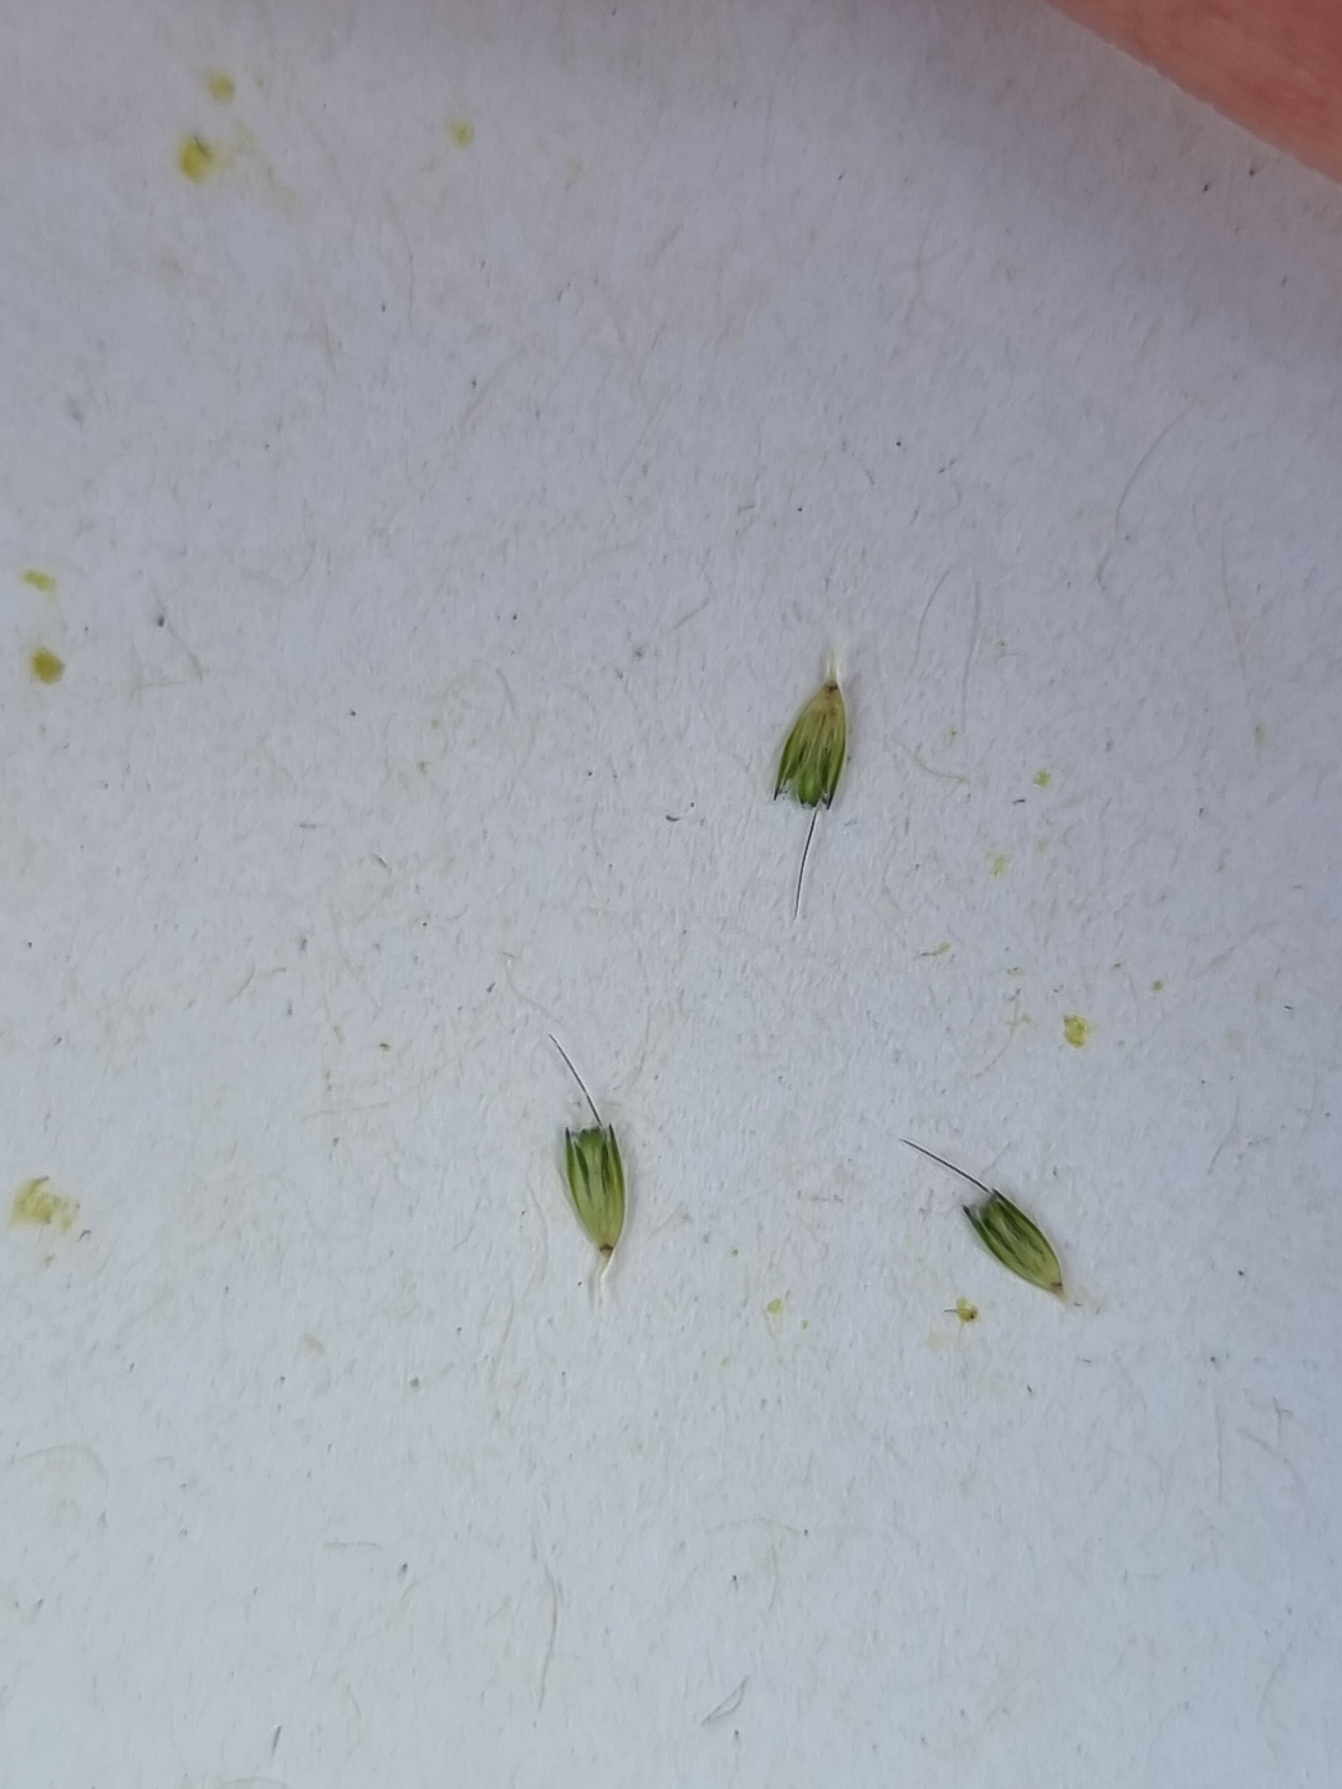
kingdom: Plantae
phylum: Tracheophyta
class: Liliopsida
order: Poales
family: Poaceae
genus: Alopecurus
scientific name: Alopecurus geniculatus
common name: Knæbøjet rævehale
